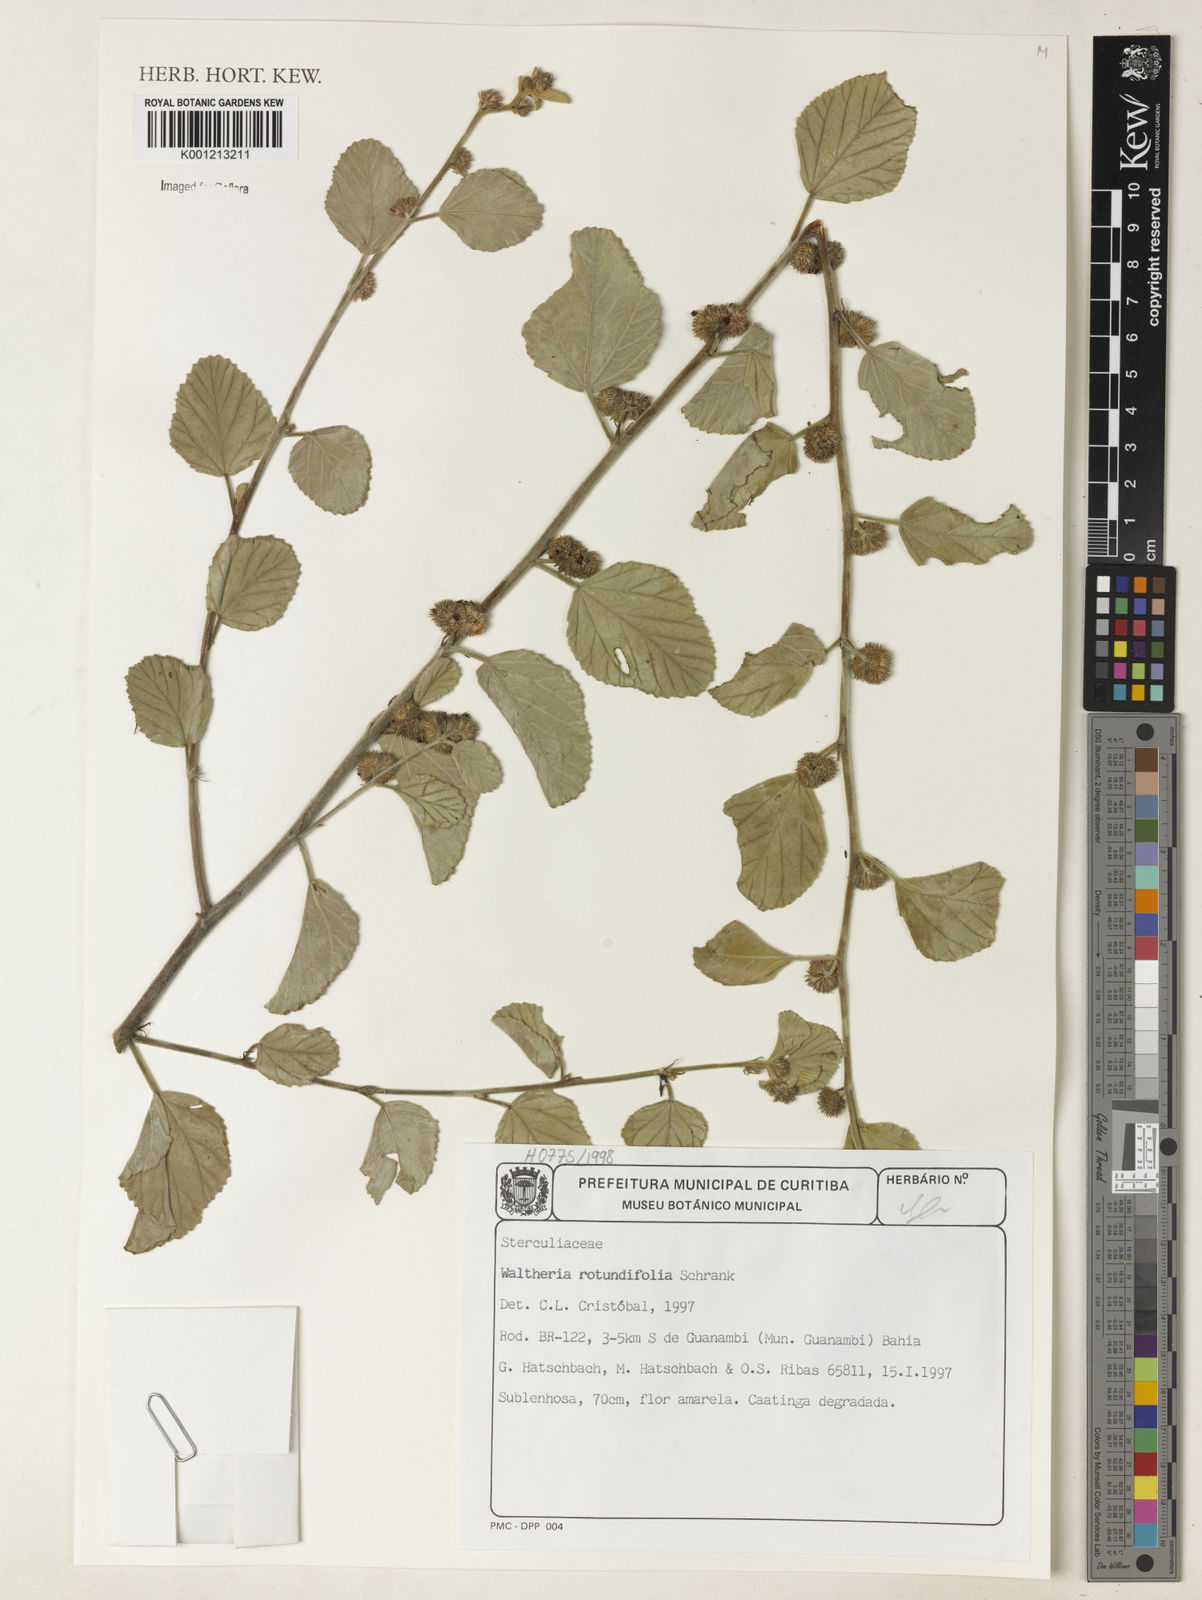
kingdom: Plantae
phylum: Tracheophyta
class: Magnoliopsida
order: Malvales
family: Malvaceae
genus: Waltheria
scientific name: Waltheria rotundifolia
